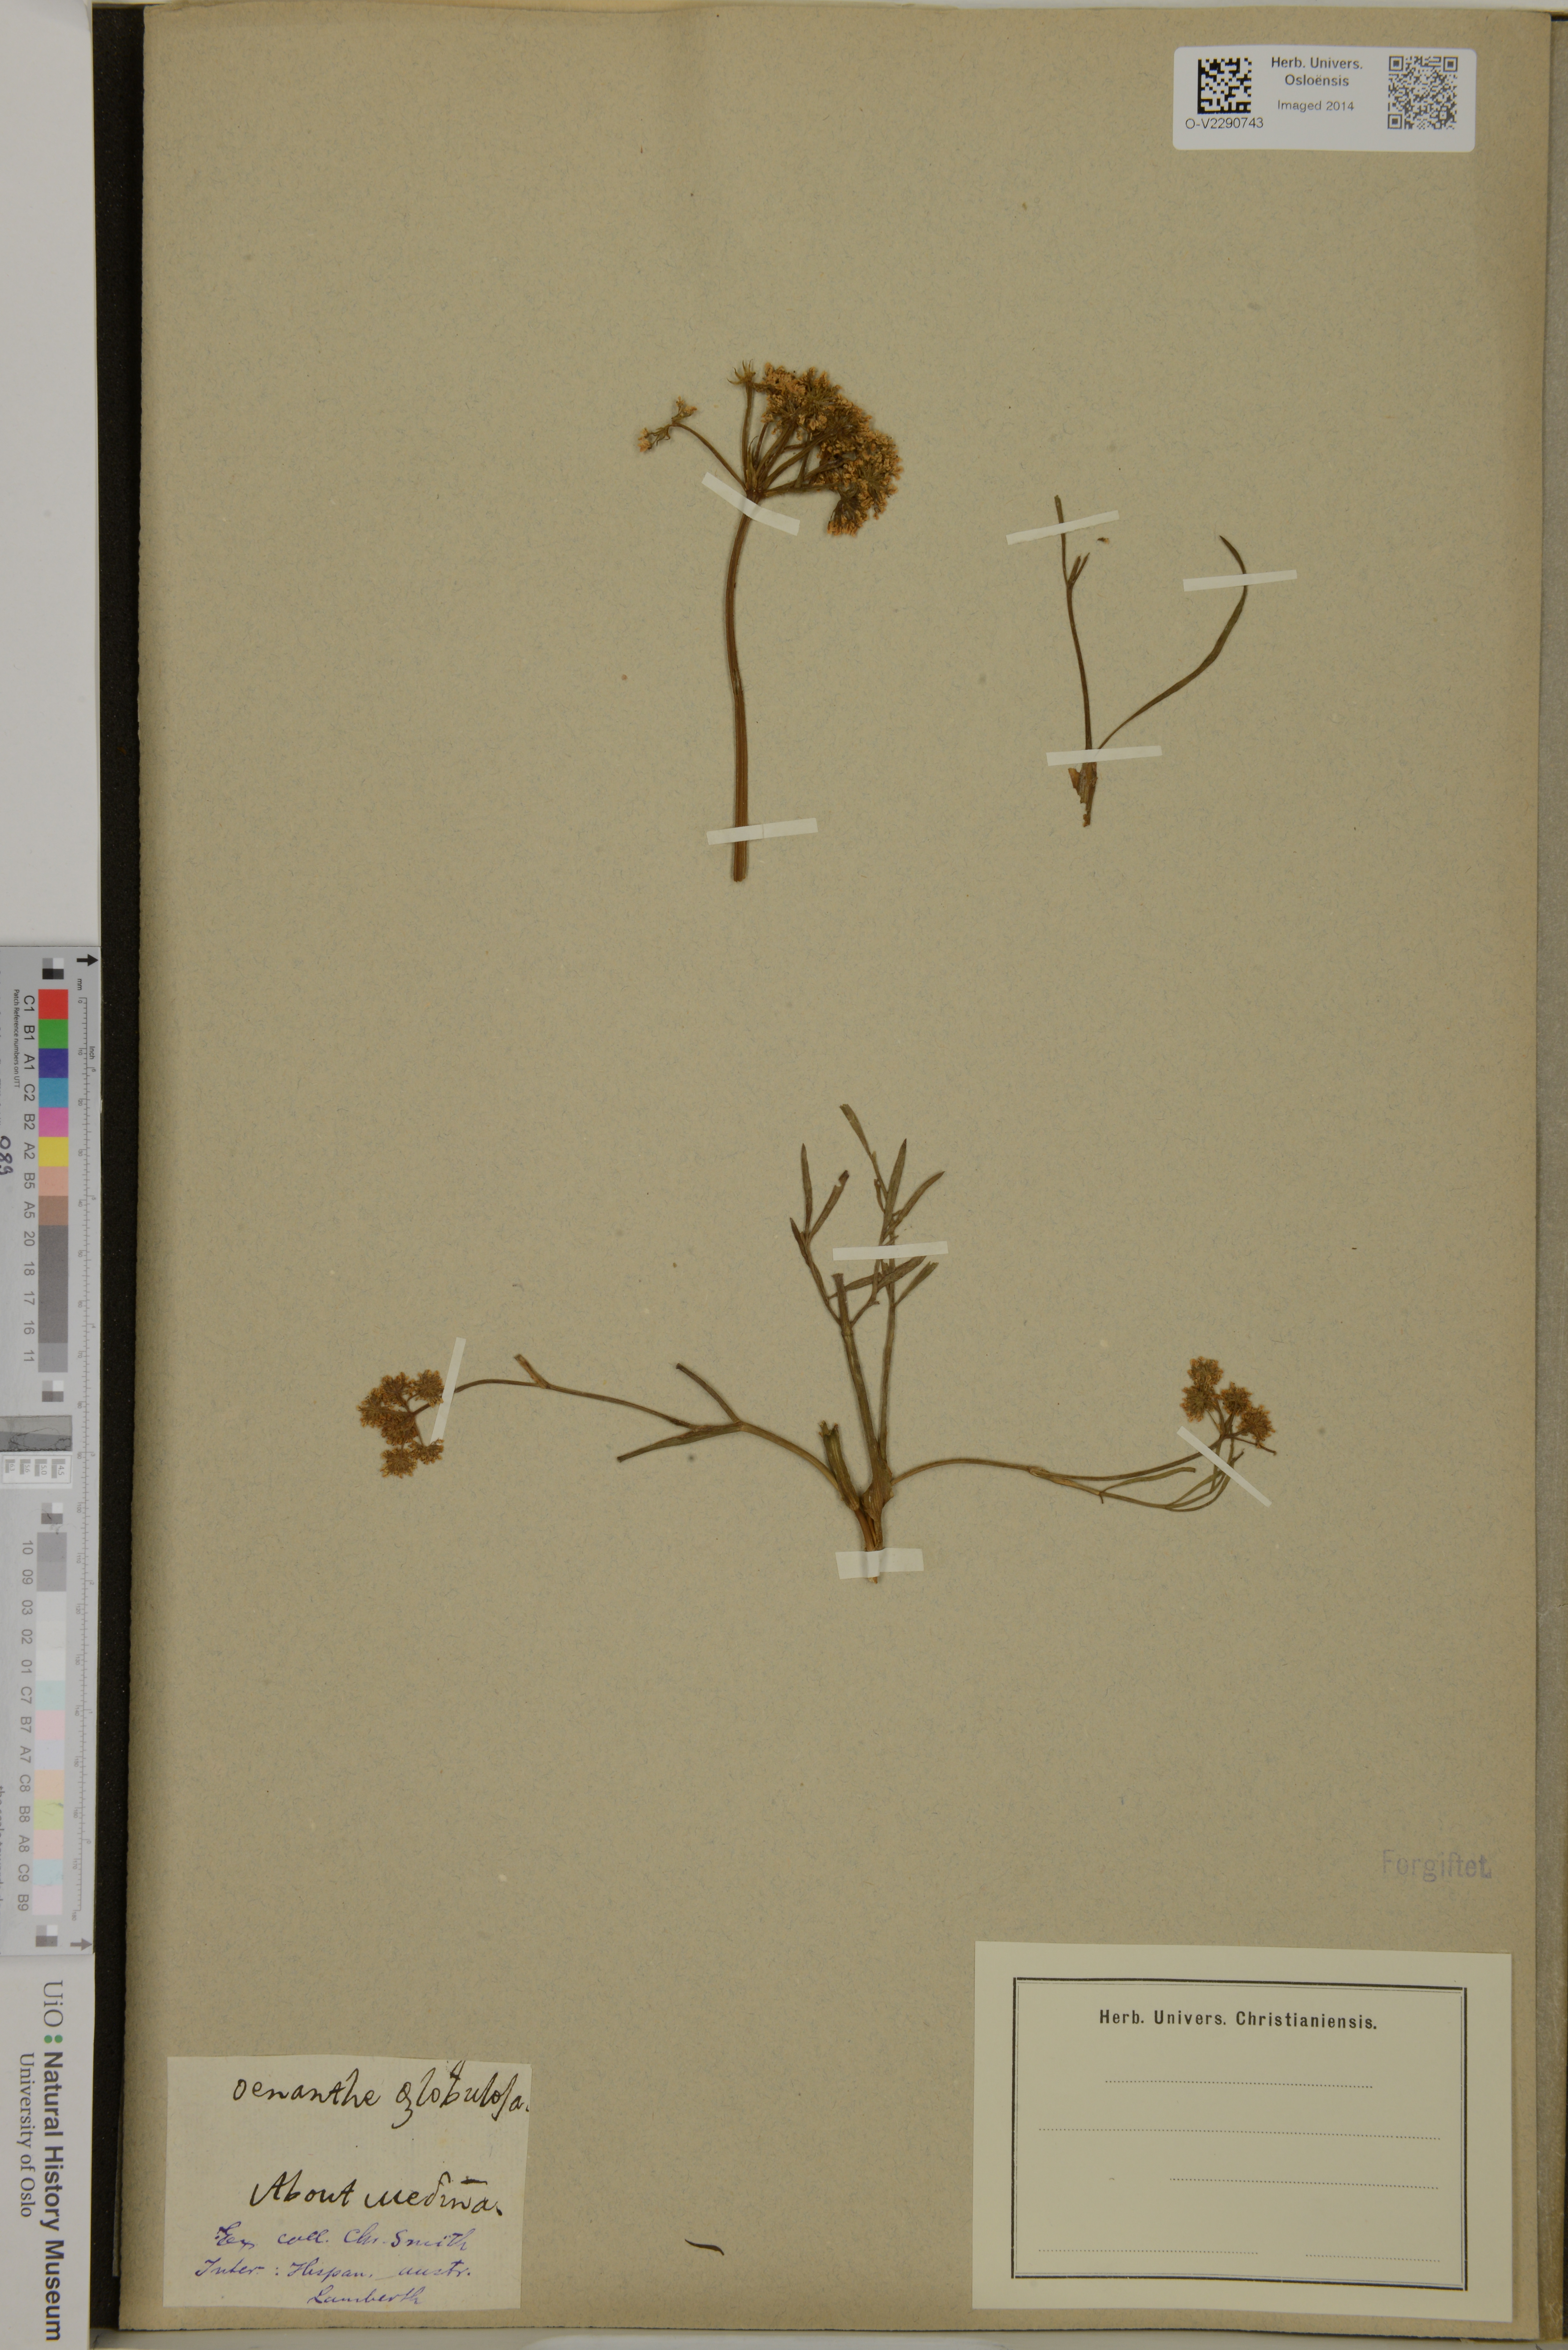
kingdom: Plantae
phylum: Tracheophyta
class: Magnoliopsida
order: Apiales
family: Apiaceae
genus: Oenanthe
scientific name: Oenanthe globulosa
